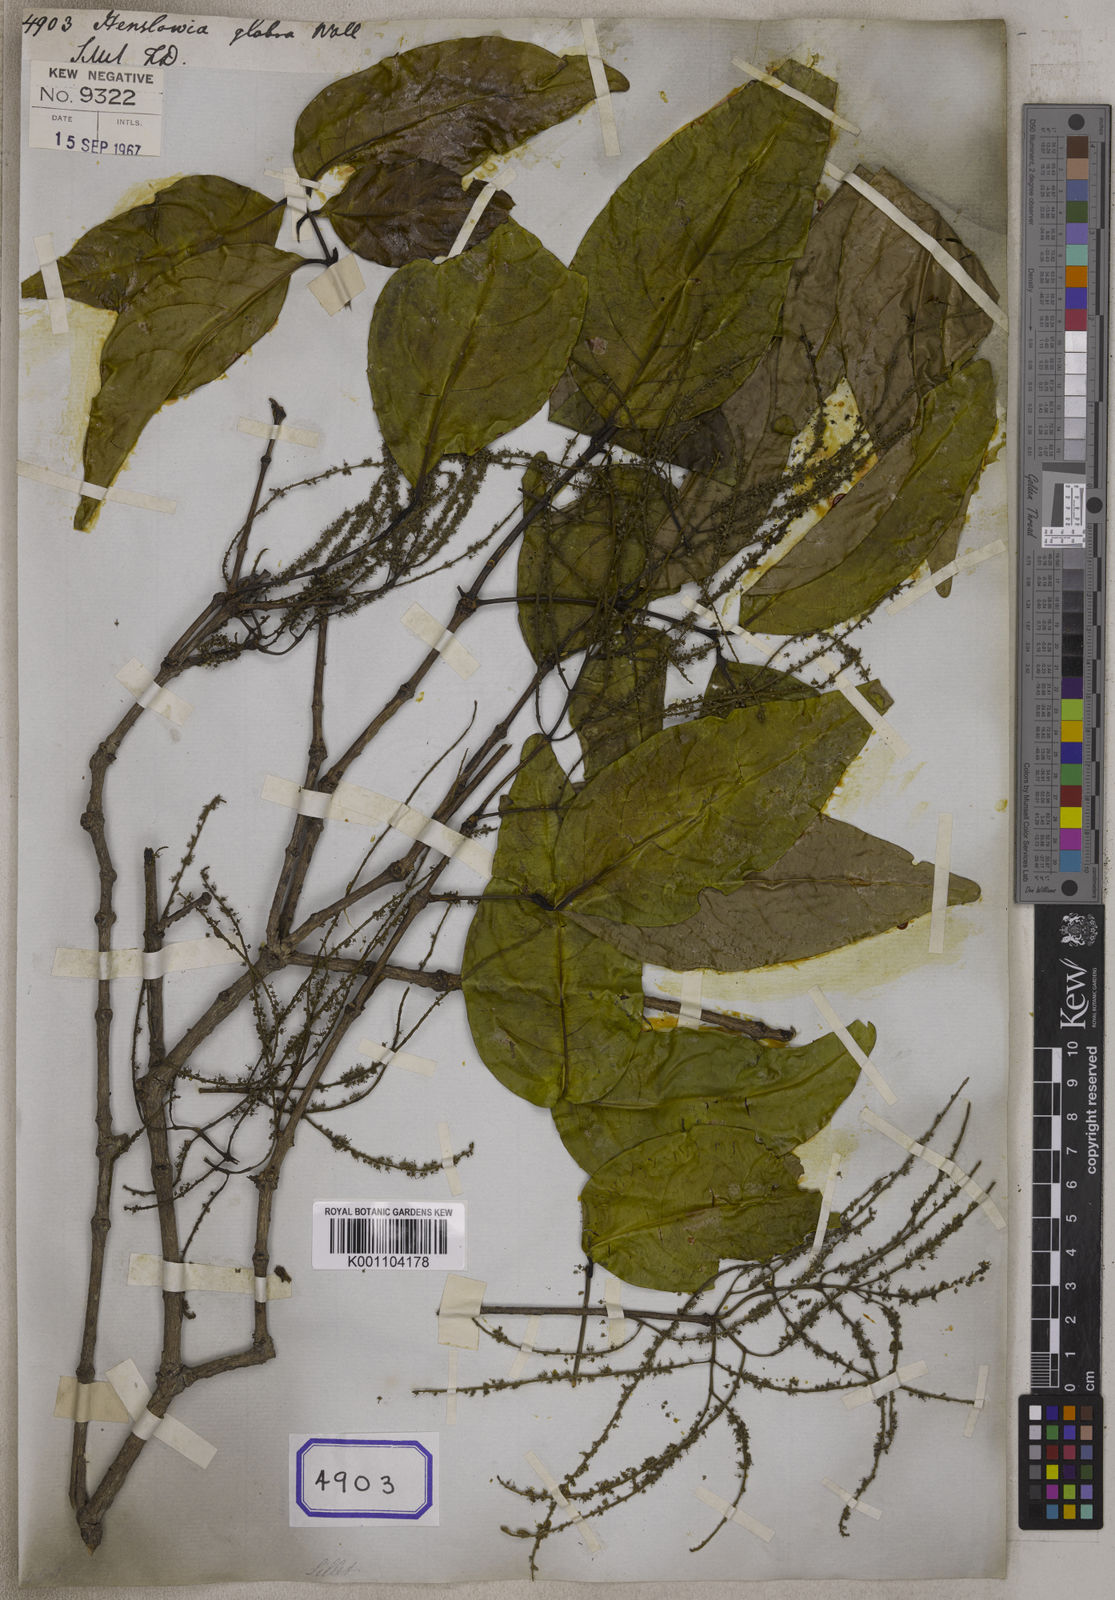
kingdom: Plantae
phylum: Tracheophyta
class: Magnoliopsida
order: Myrtales
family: Crypteroniaceae
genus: Crypteronia
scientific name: Crypteronia paniculata
